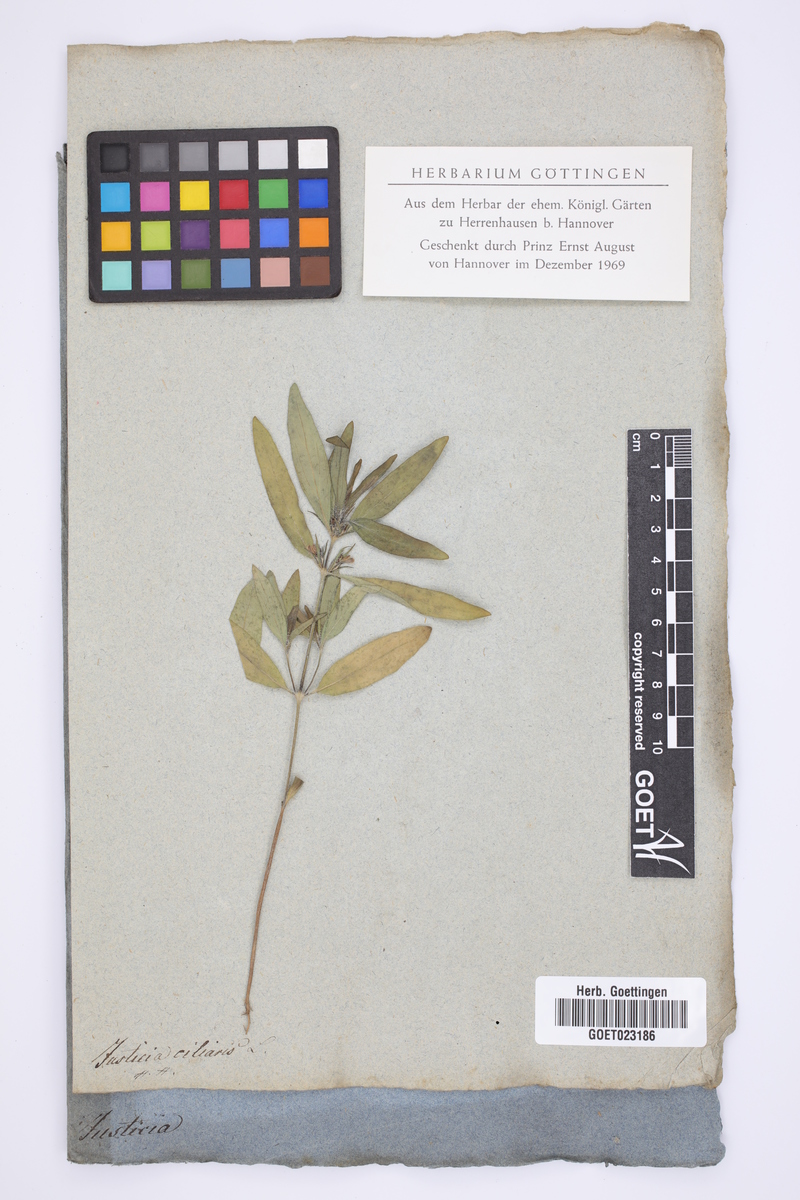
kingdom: Plantae
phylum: Tracheophyta
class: Magnoliopsida
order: Lamiales
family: Acanthaceae
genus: Pogonospermum
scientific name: Pogonospermum ciliare
